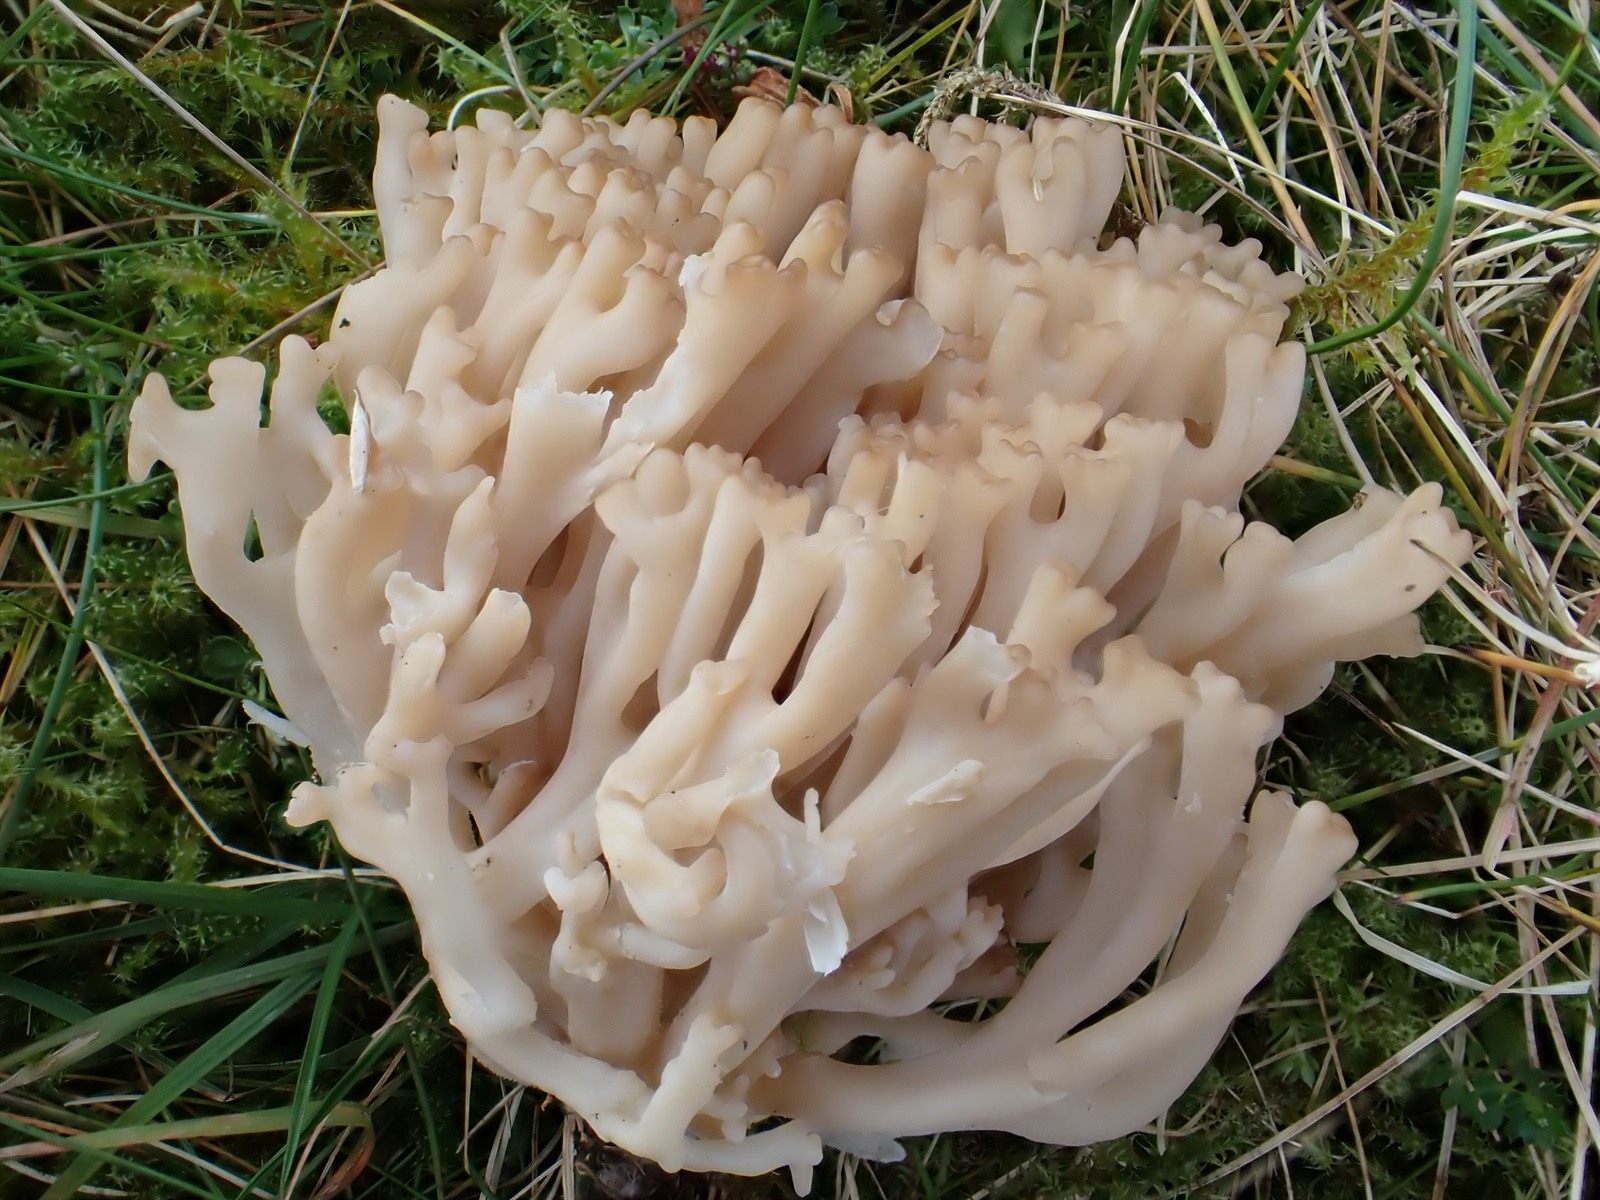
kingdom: Fungi
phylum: Basidiomycota
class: Agaricomycetes
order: Agaricales
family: Clavariaceae
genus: Clavulinopsis
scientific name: Clavulinopsis
